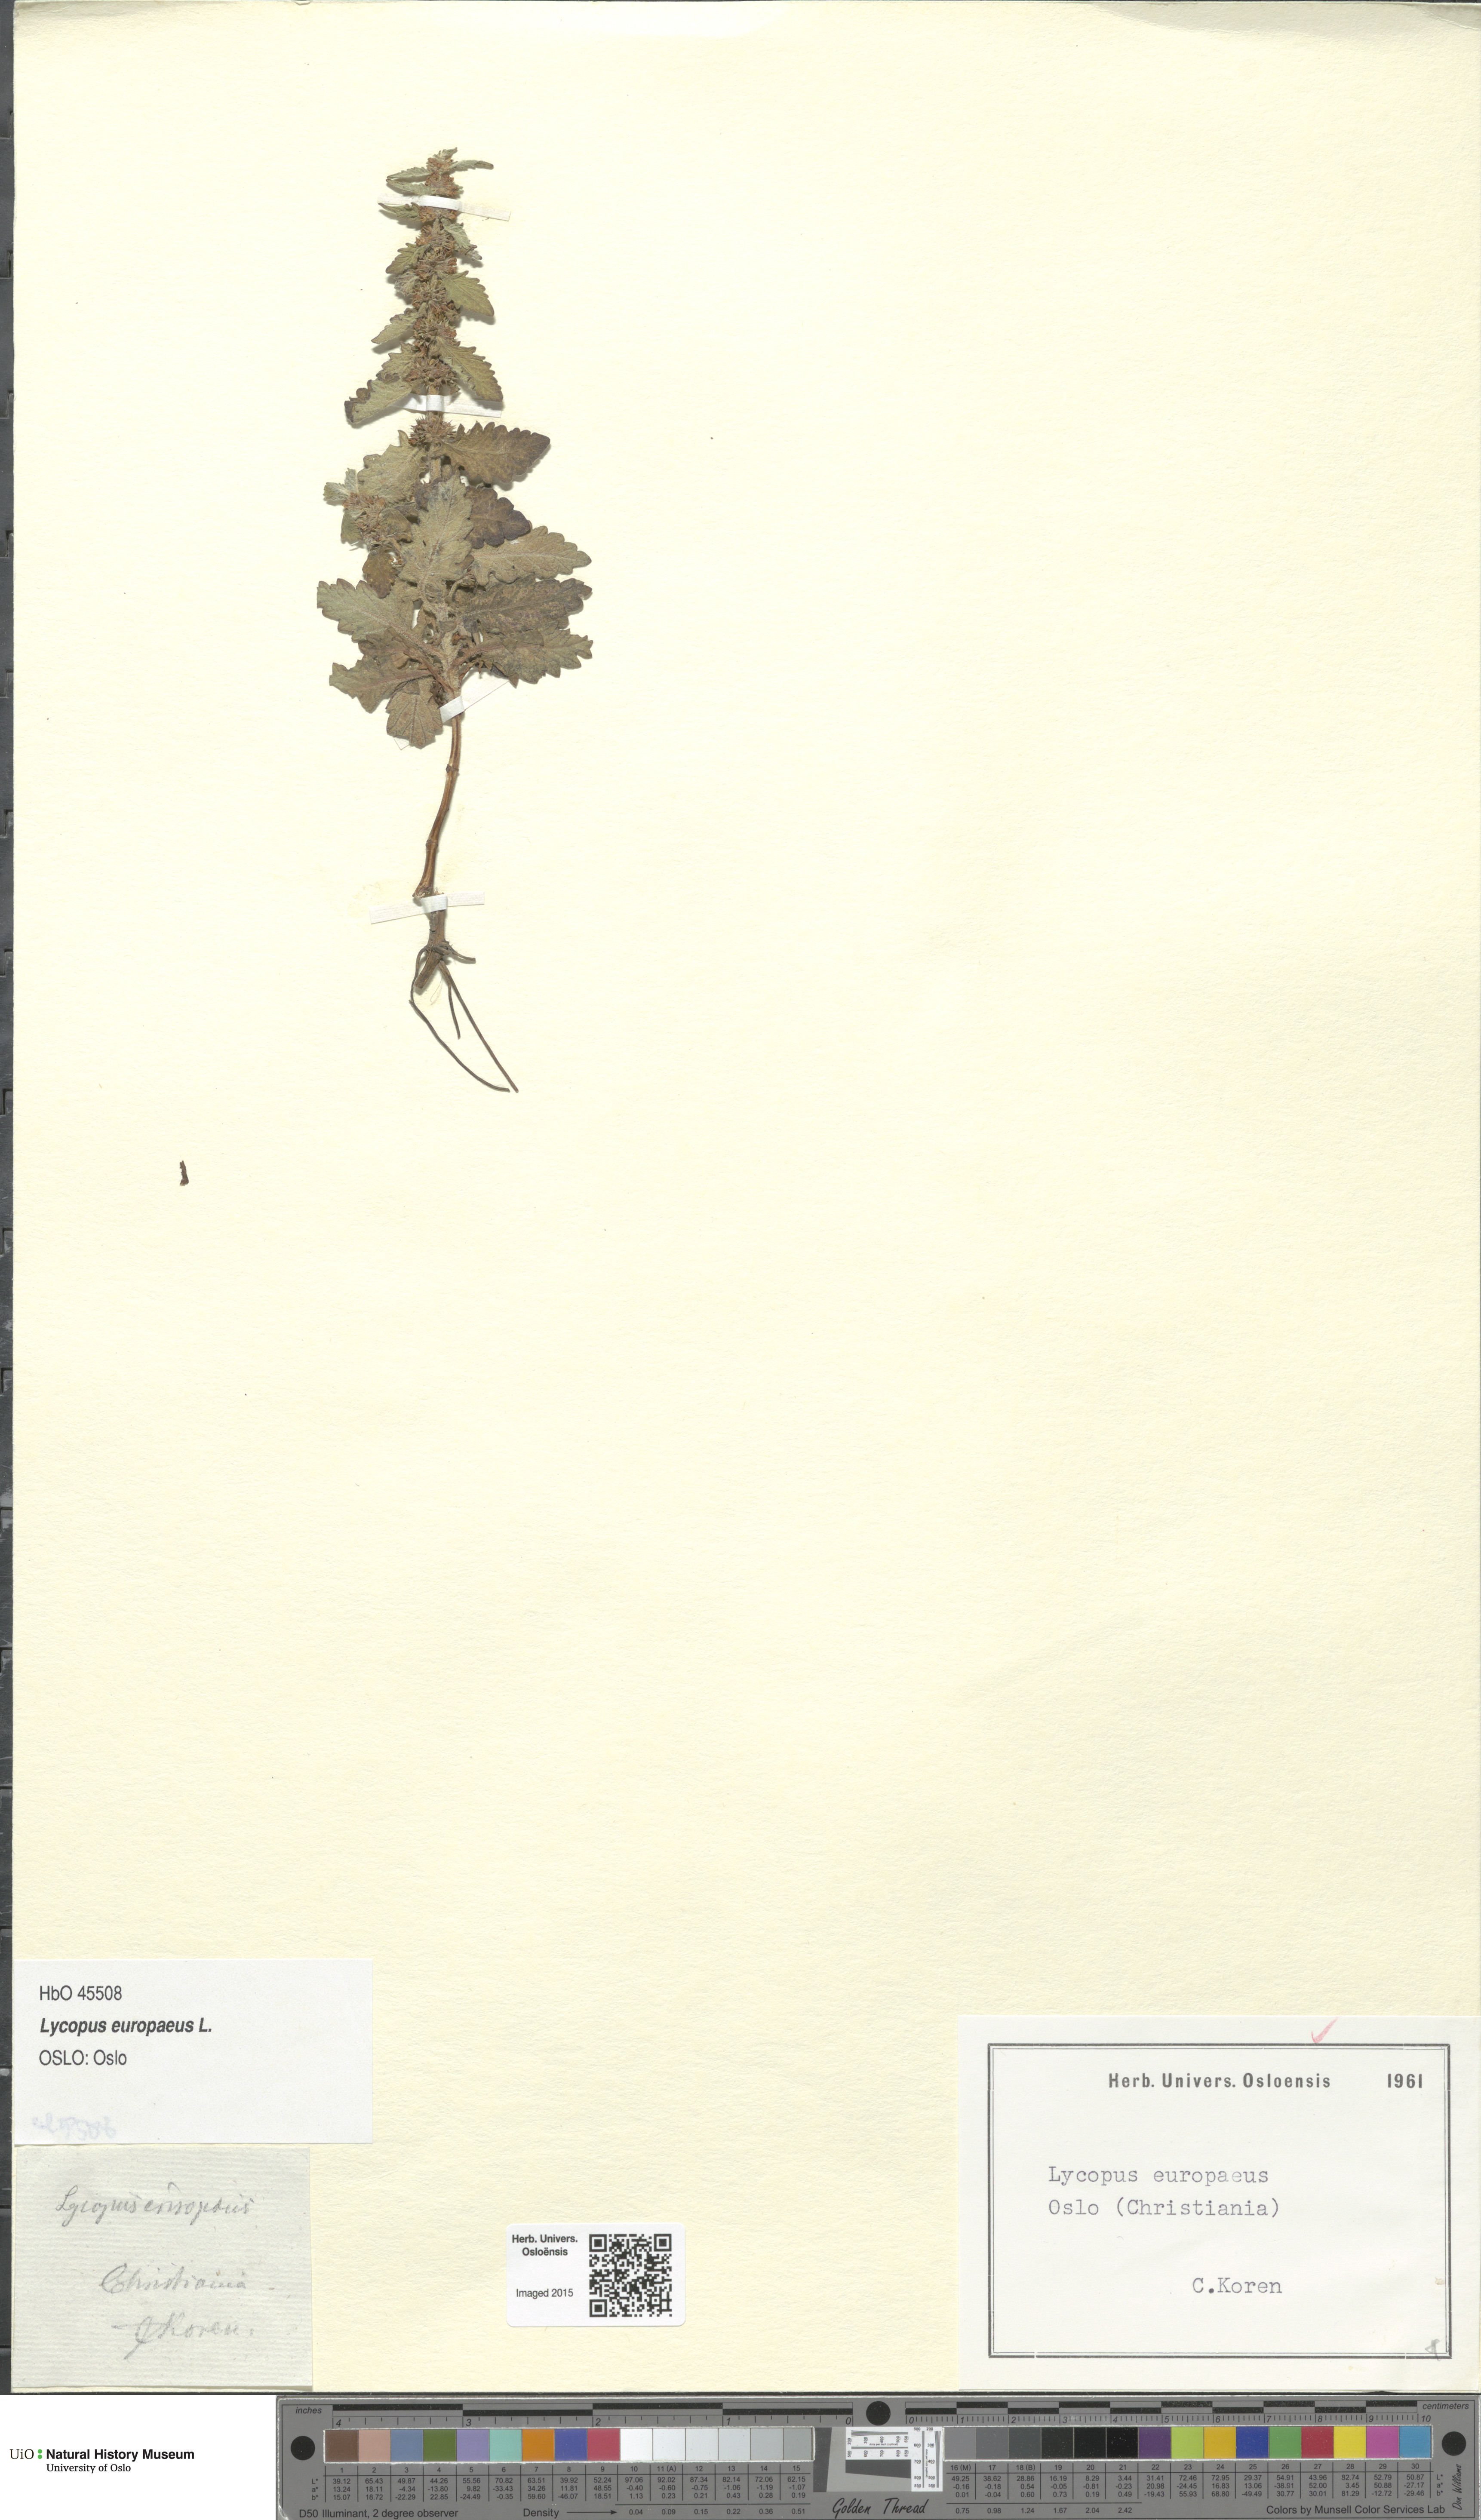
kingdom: Plantae
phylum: Tracheophyta
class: Magnoliopsida
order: Lamiales
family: Lamiaceae
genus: Lycopus
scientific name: Lycopus europaeus
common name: European bugleweed
